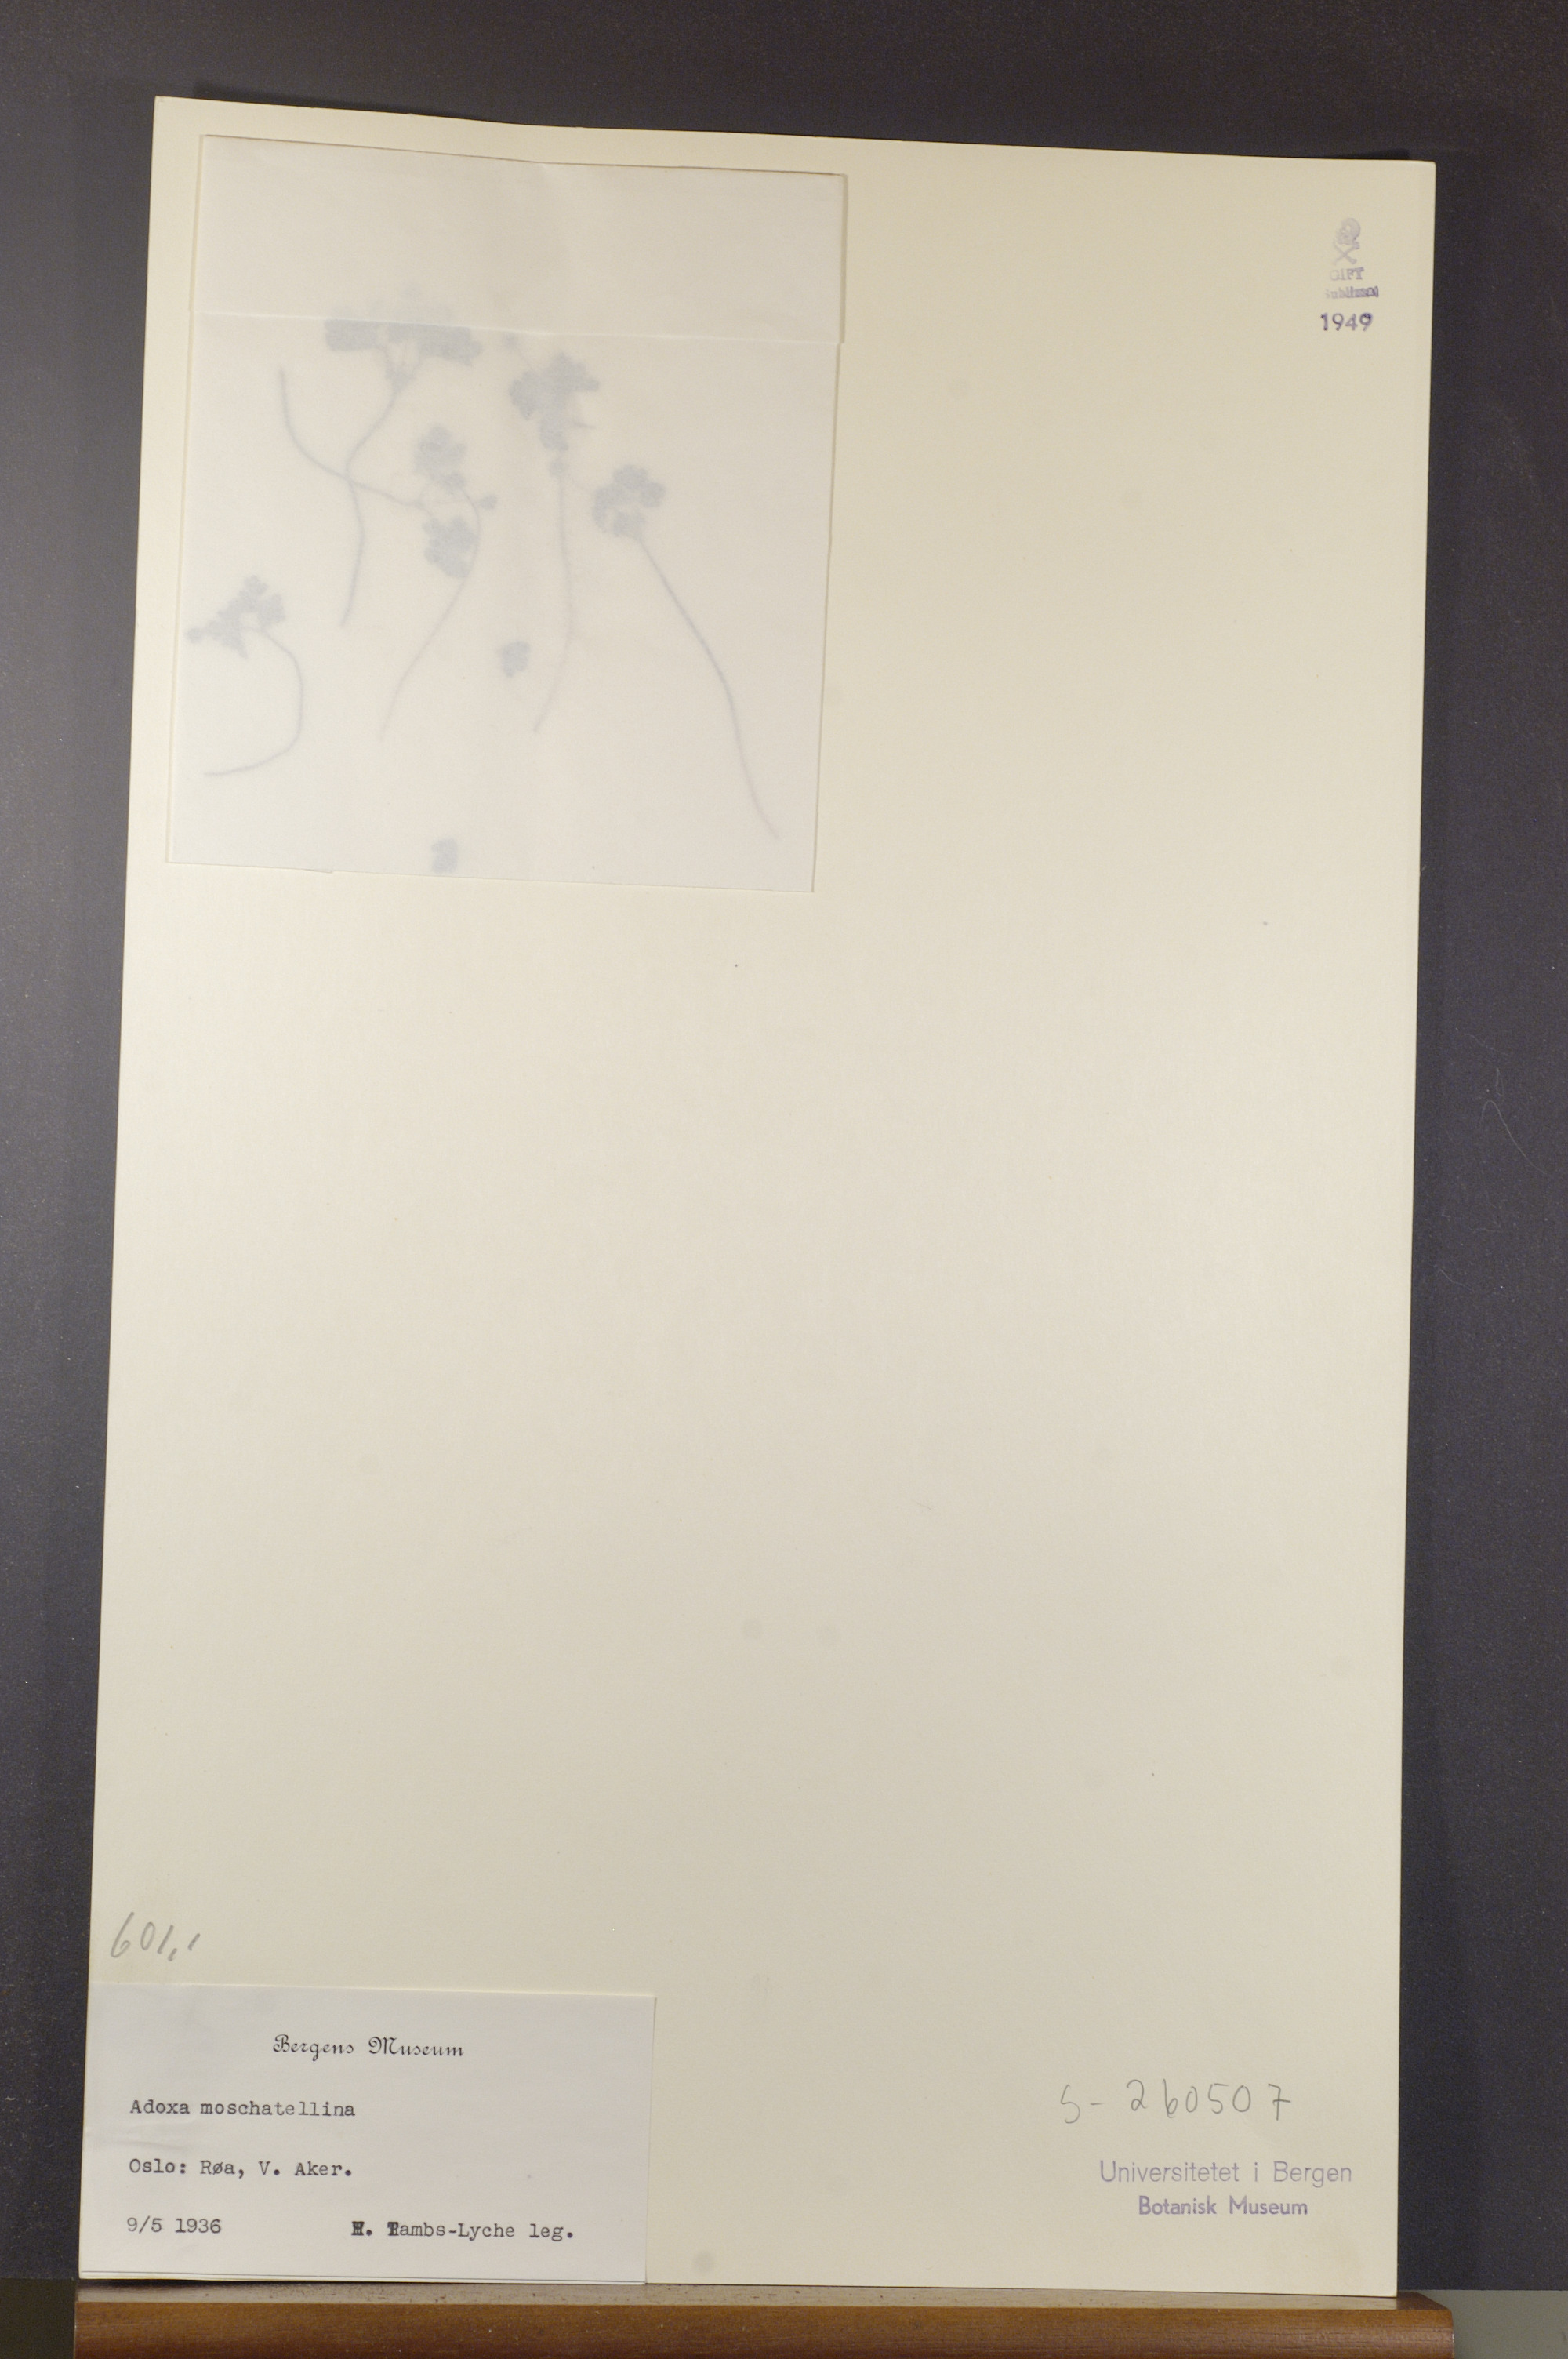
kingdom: Plantae
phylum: Tracheophyta
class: Magnoliopsida
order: Dipsacales
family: Viburnaceae
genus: Adoxa
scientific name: Adoxa moschatellina
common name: Moschatel
